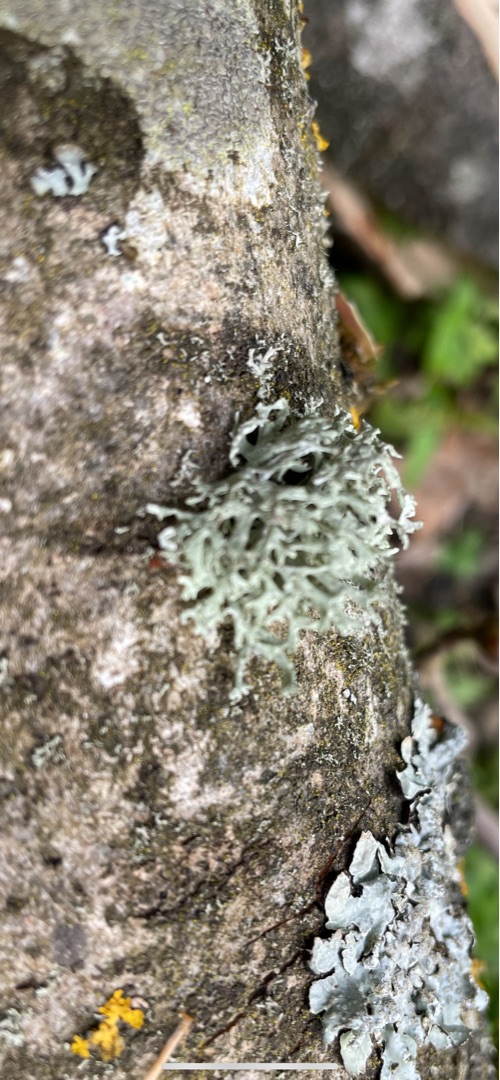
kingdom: Fungi
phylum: Ascomycota
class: Lecanoromycetes
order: Lecanorales
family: Parmeliaceae
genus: Evernia
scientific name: Evernia prunastri
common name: Almindelig slåenlav
